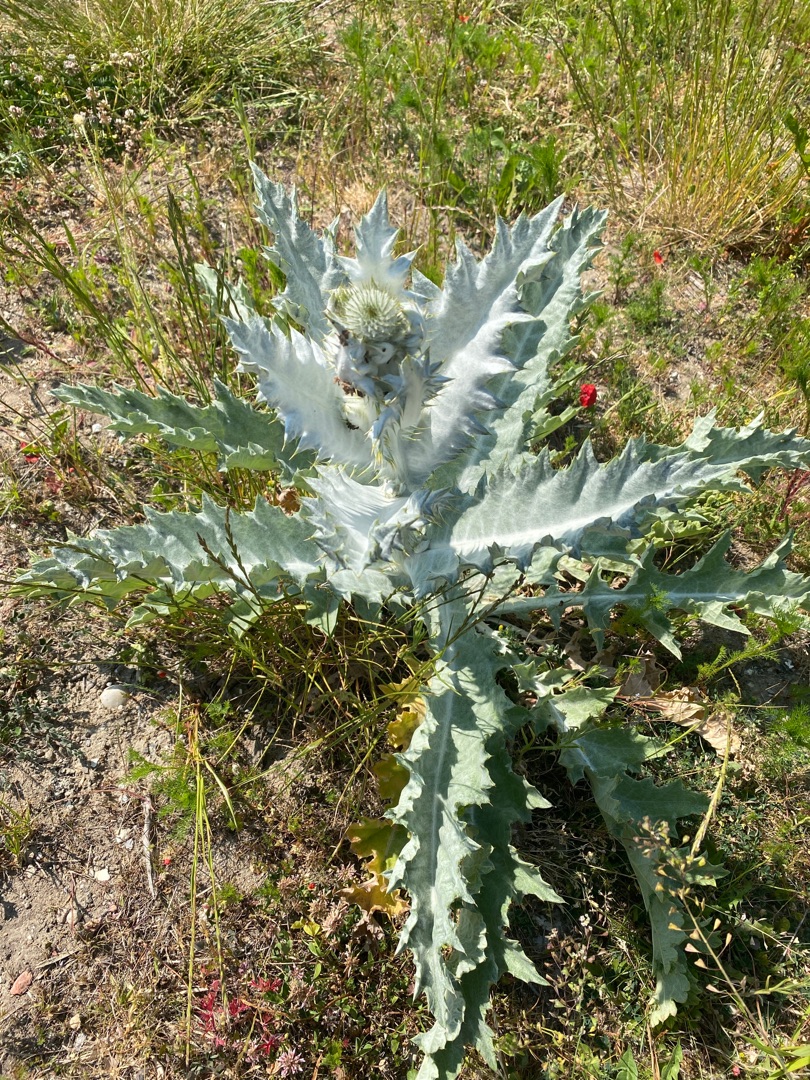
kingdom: Plantae
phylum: Tracheophyta
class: Magnoliopsida
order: Asterales
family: Asteraceae
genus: Onopordum
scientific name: Onopordum acanthium
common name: Æselfoder
